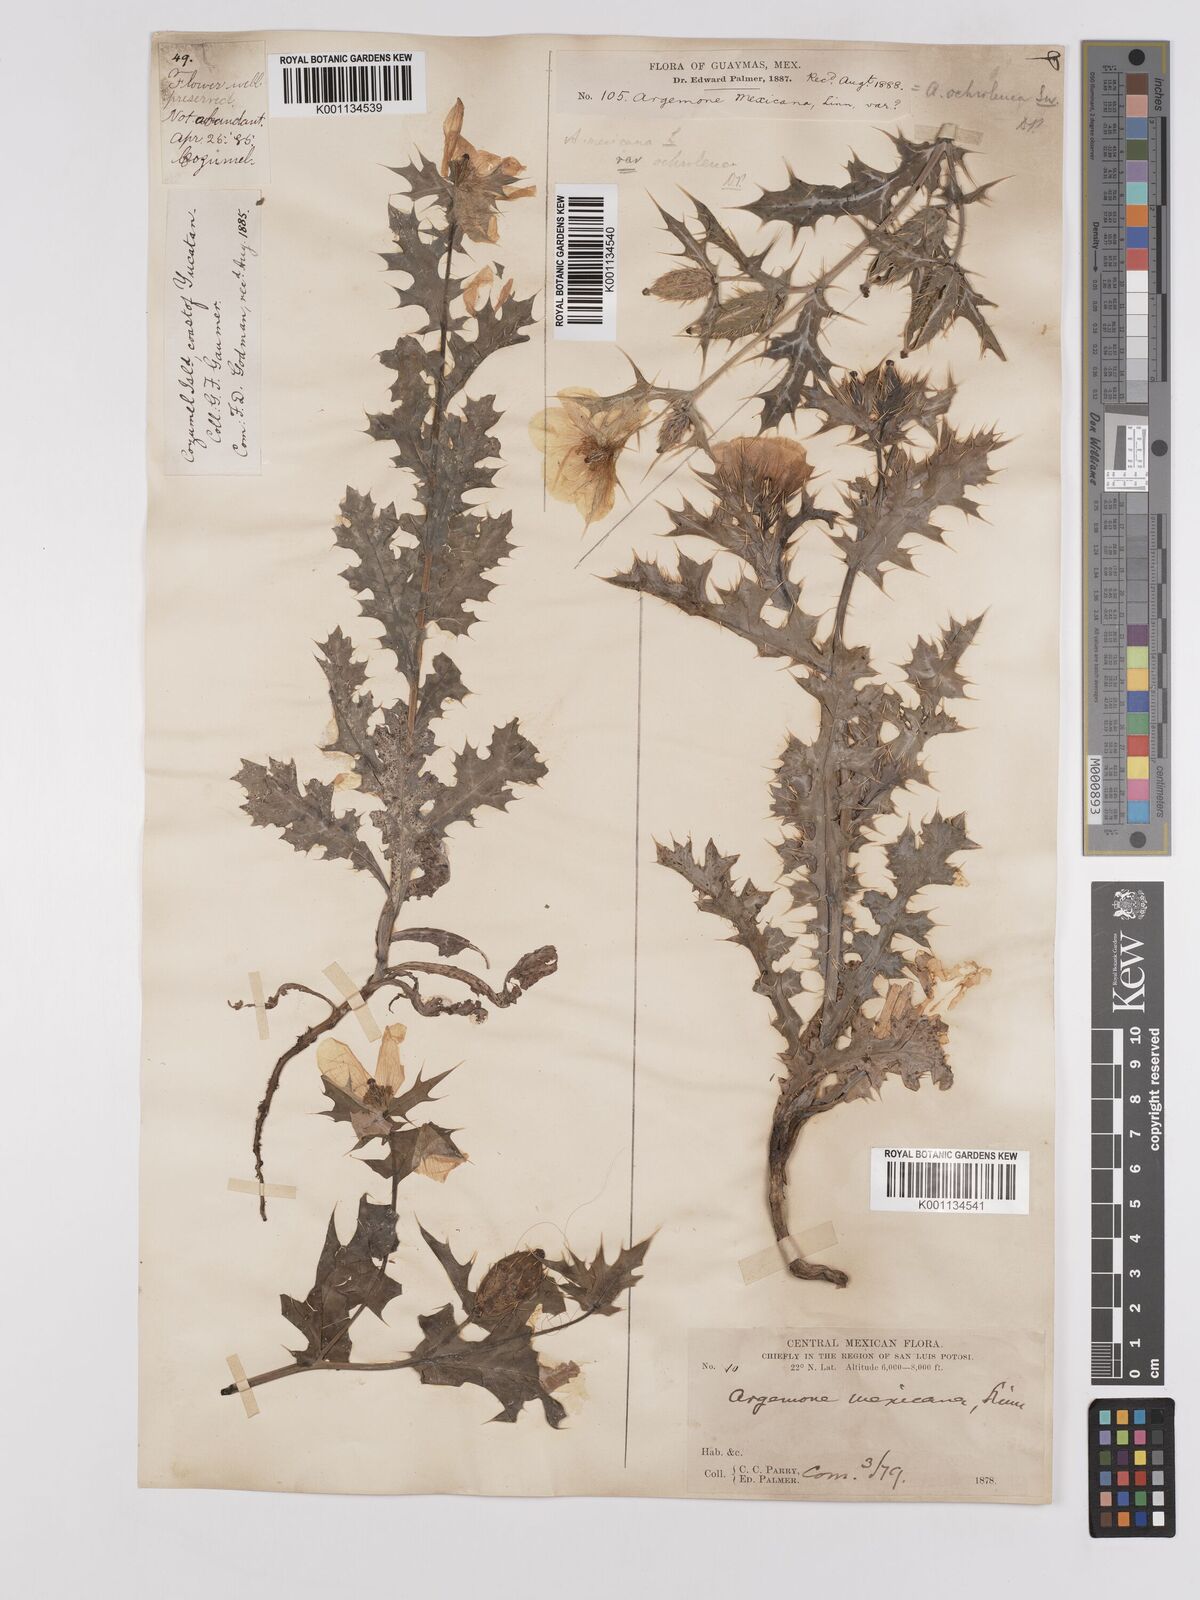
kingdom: Plantae
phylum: Tracheophyta
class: Magnoliopsida
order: Ranunculales
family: Papaveraceae
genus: Argemone
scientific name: Argemone mexicana
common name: Mexican poppy
